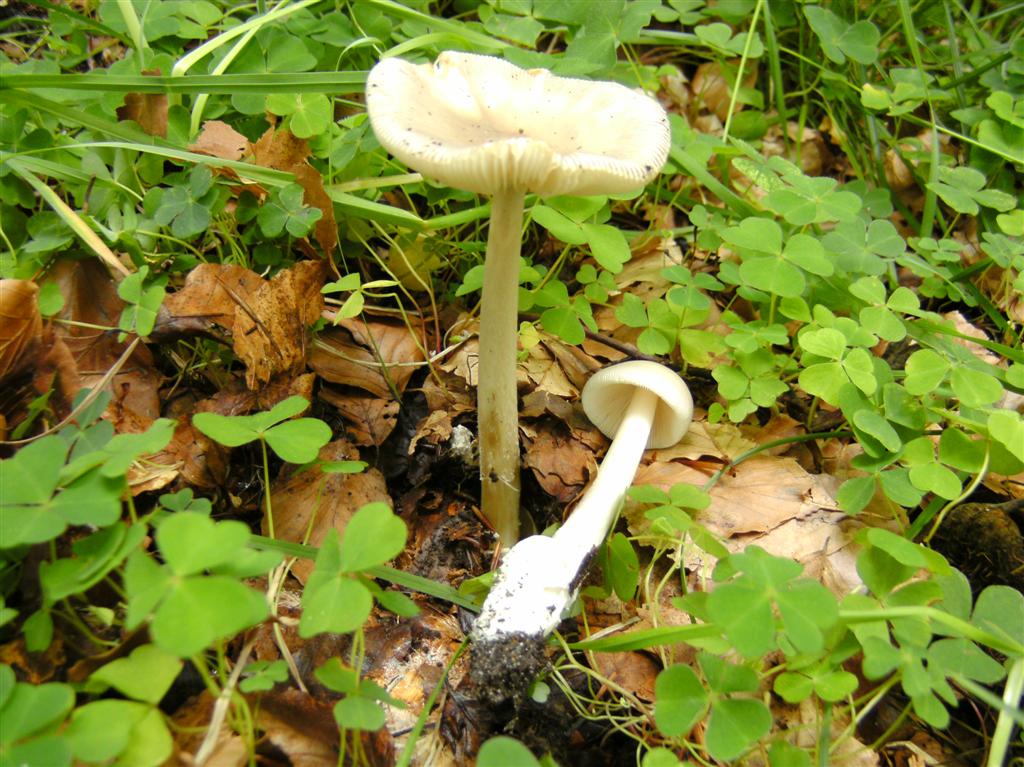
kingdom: Fungi
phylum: Basidiomycota
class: Agaricomycetes
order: Agaricales
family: Amanitaceae
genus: Amanita
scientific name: Amanita vaginata
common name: grå kam-fluesvamp
